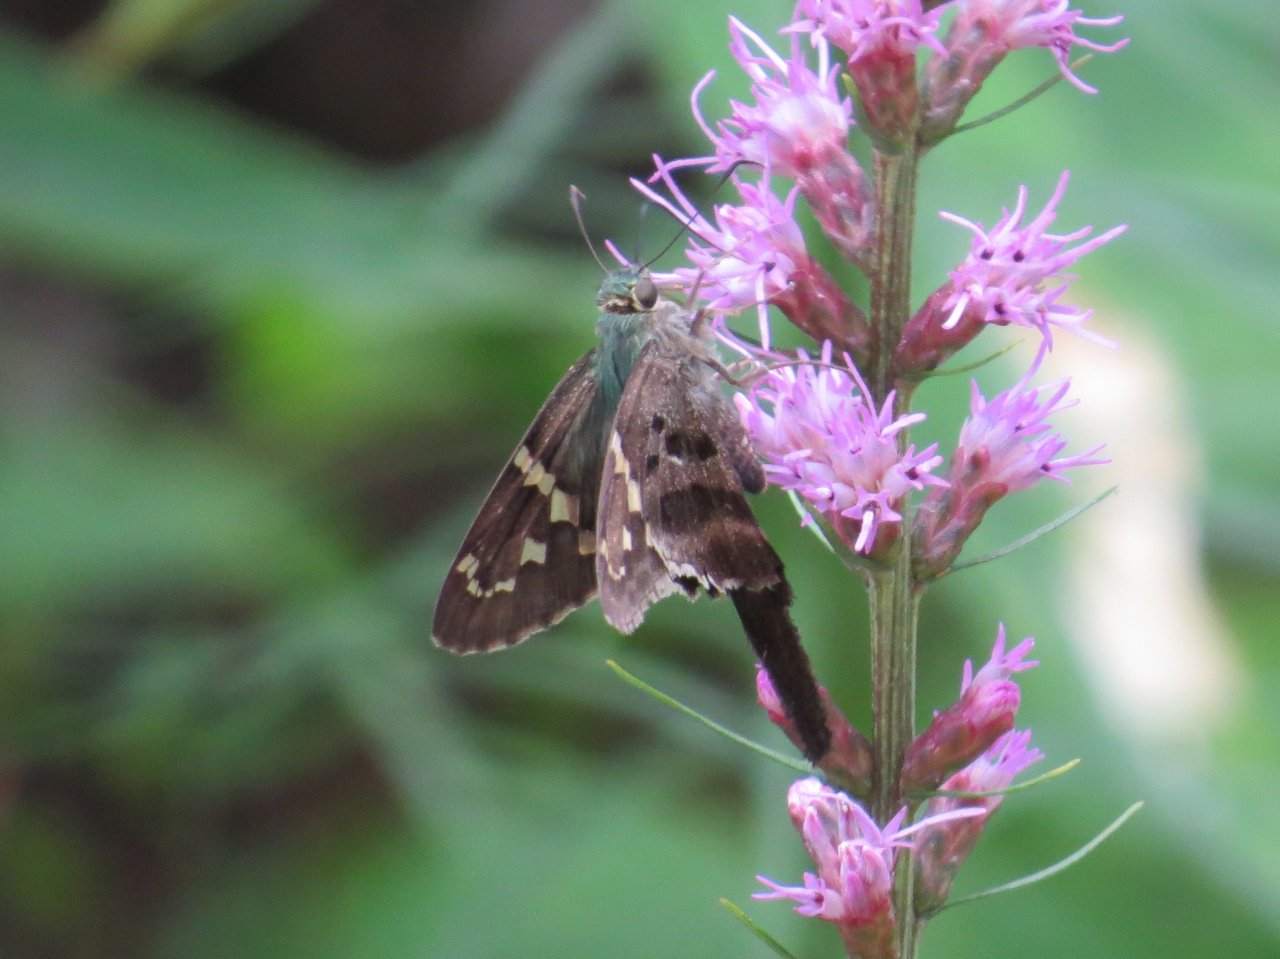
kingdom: Animalia
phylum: Arthropoda
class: Insecta
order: Lepidoptera
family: Hesperiidae
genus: Urbanus
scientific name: Urbanus proteus
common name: Long-tailed Skipper
